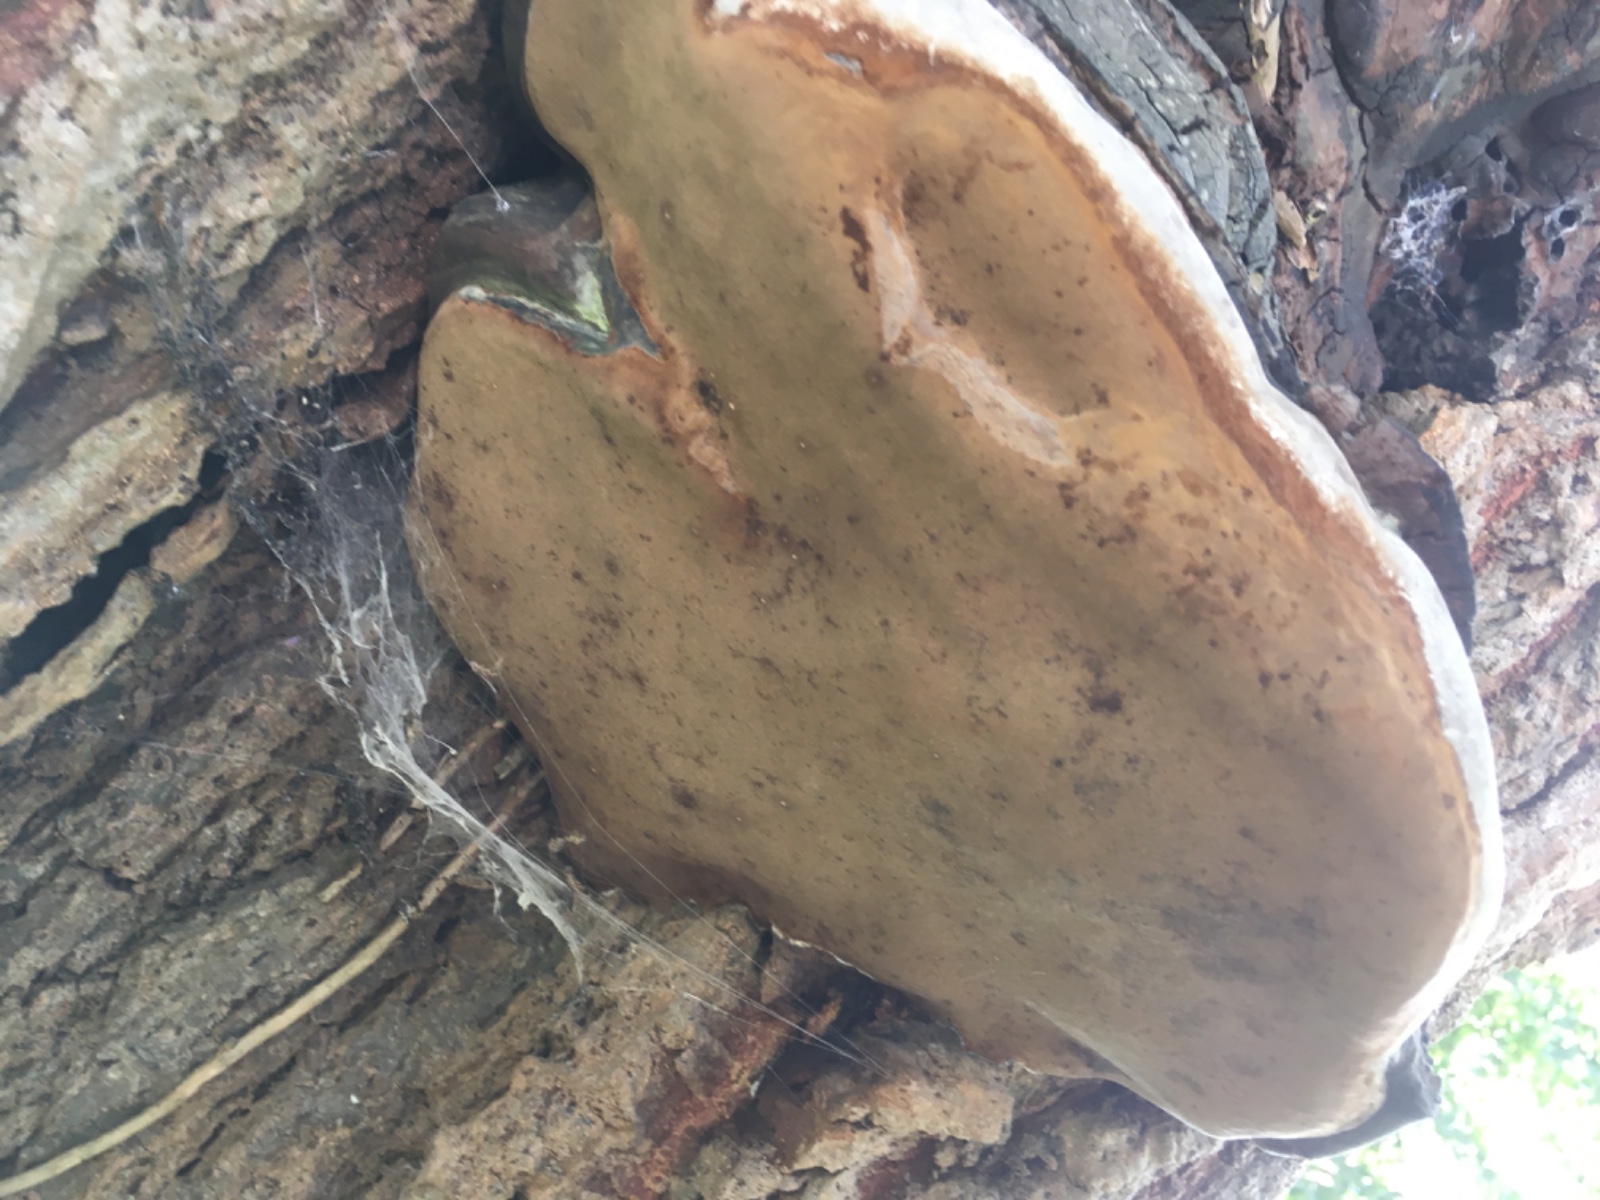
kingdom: Fungi
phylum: Basidiomycota
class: Agaricomycetes
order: Hymenochaetales
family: Hymenochaetaceae
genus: Phellinus
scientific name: Phellinus tremulae
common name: aspe-ildporesvamp
